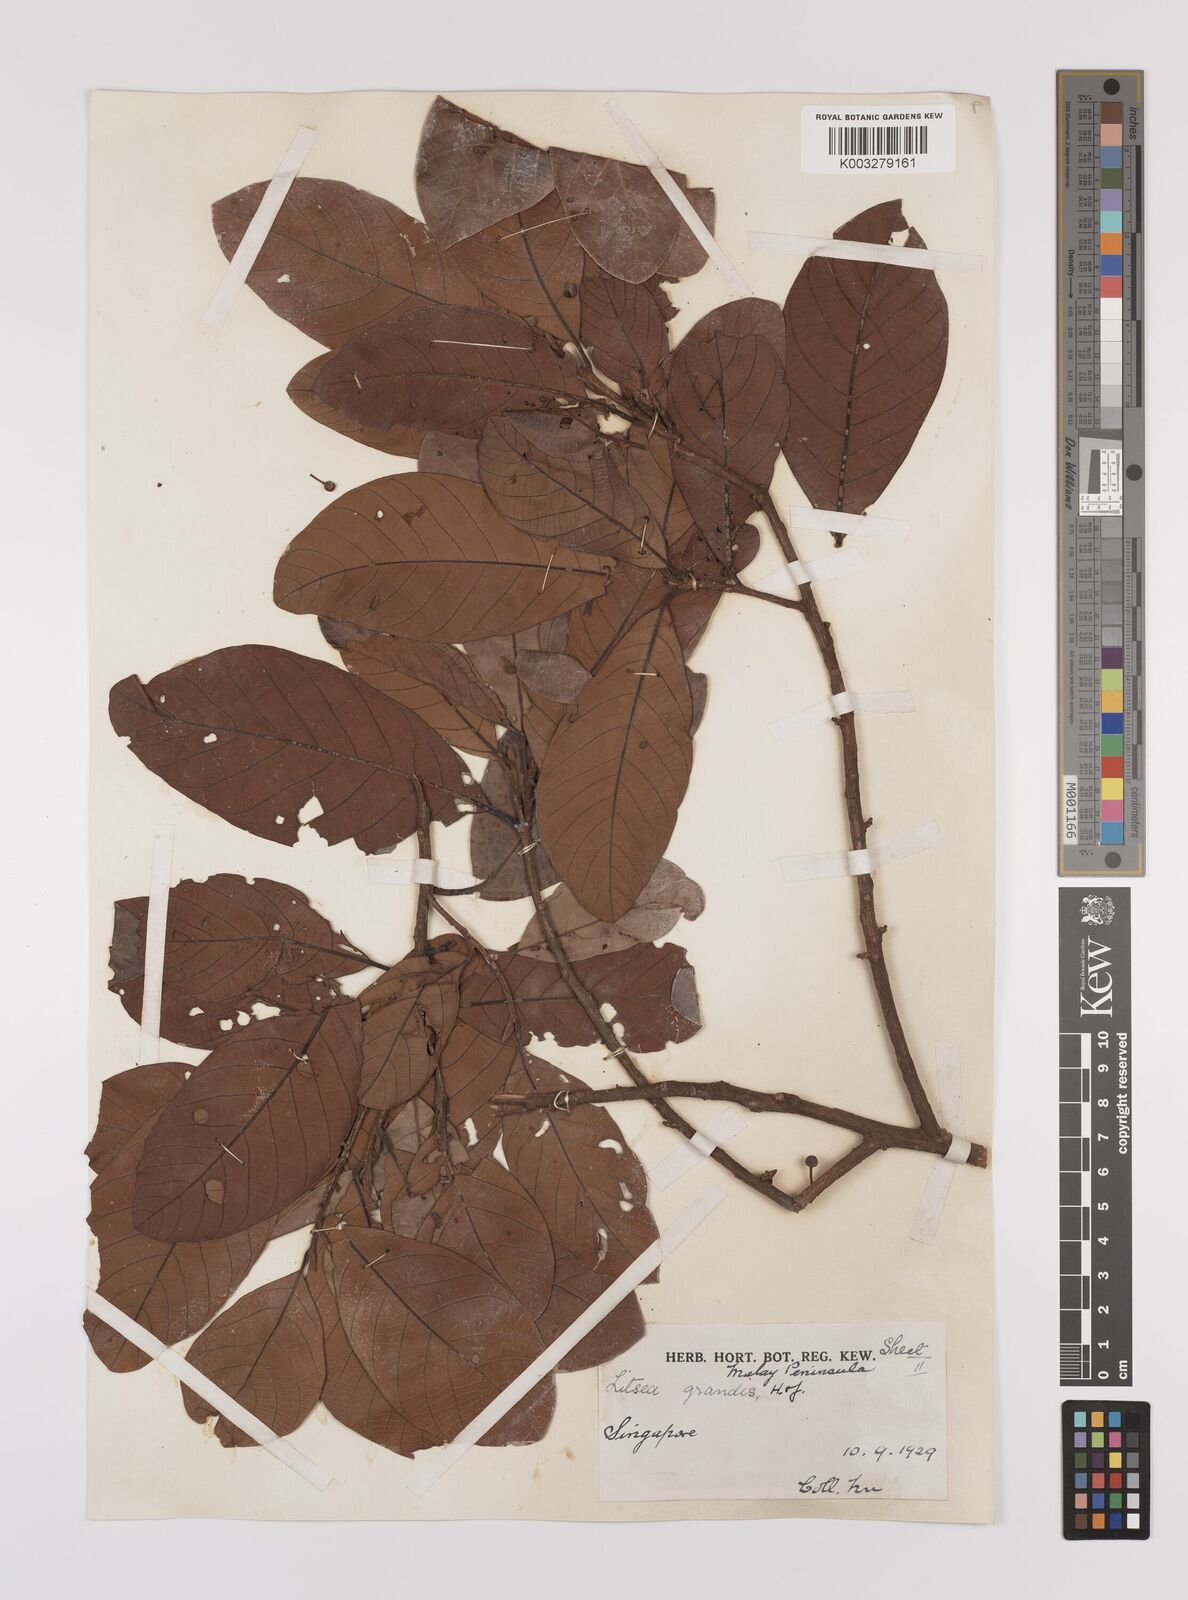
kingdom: Plantae
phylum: Tracheophyta
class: Magnoliopsida
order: Laurales
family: Lauraceae
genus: Litsea
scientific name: Litsea firma
